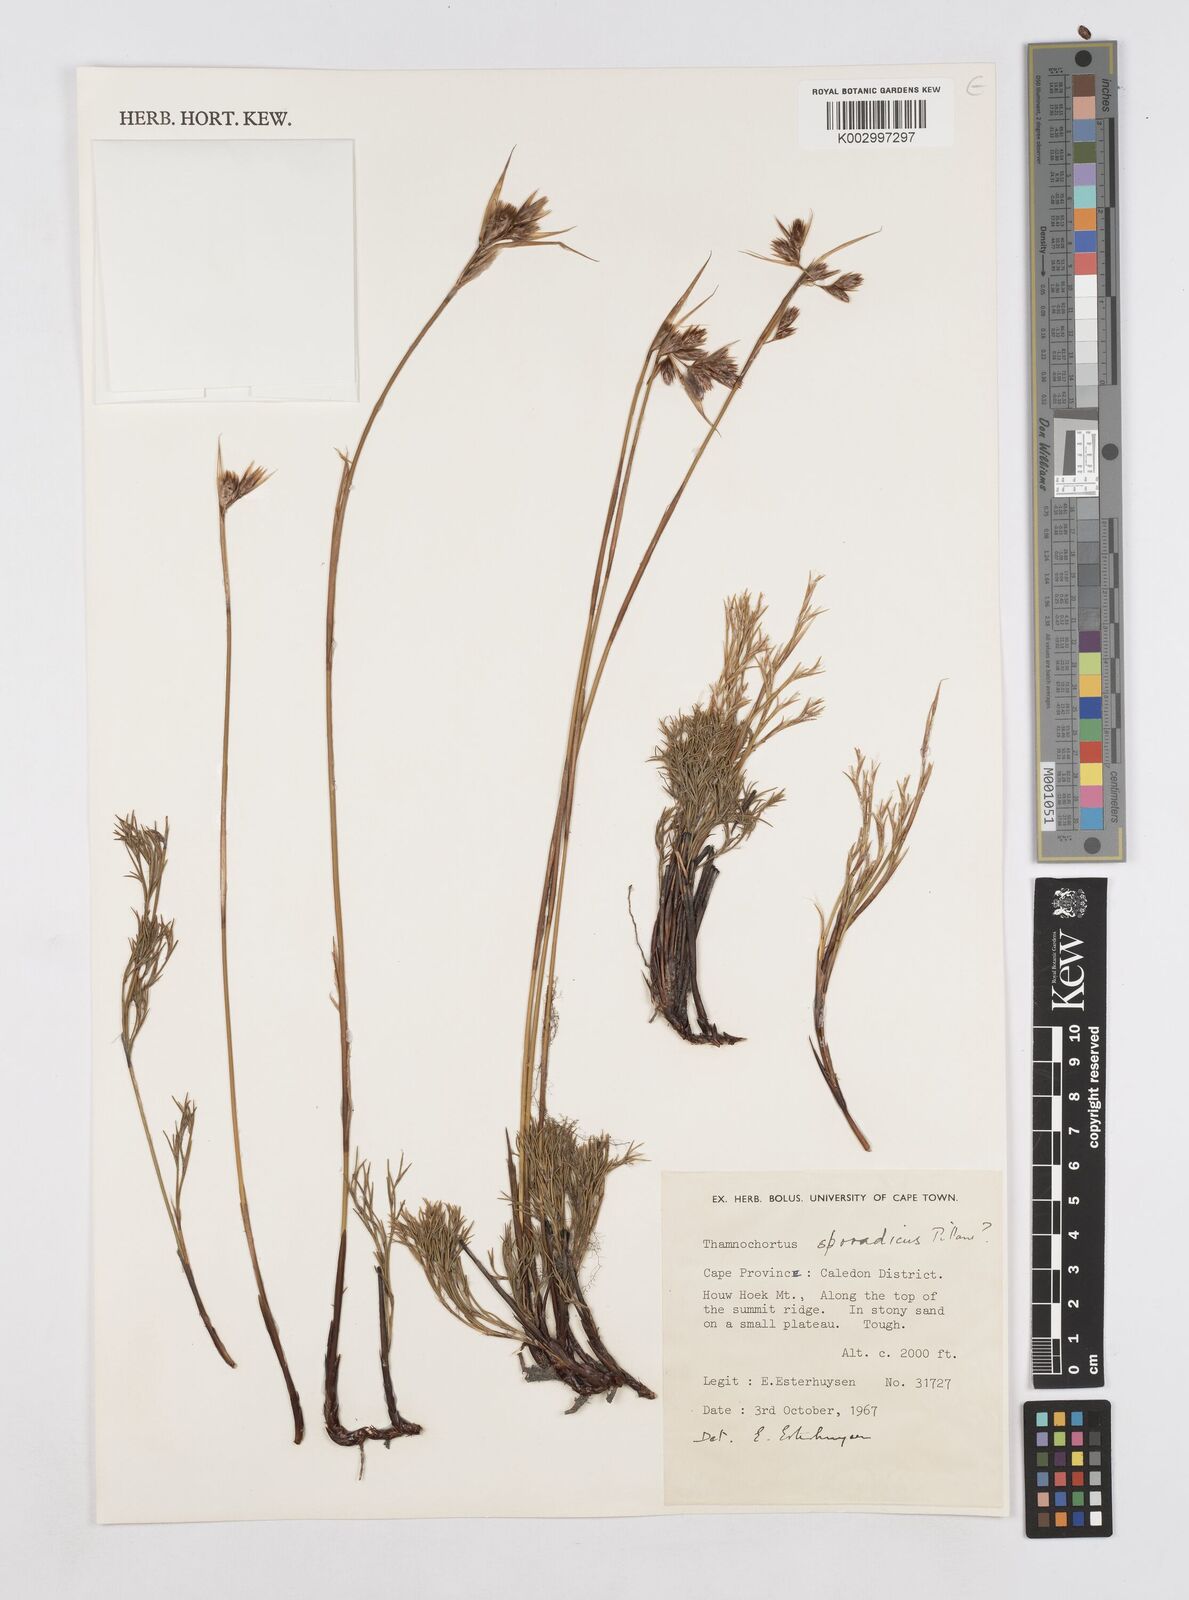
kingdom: Plantae
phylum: Tracheophyta
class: Liliopsida
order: Poales
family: Restionaceae
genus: Thamnochortus
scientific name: Thamnochortus sporadicus
